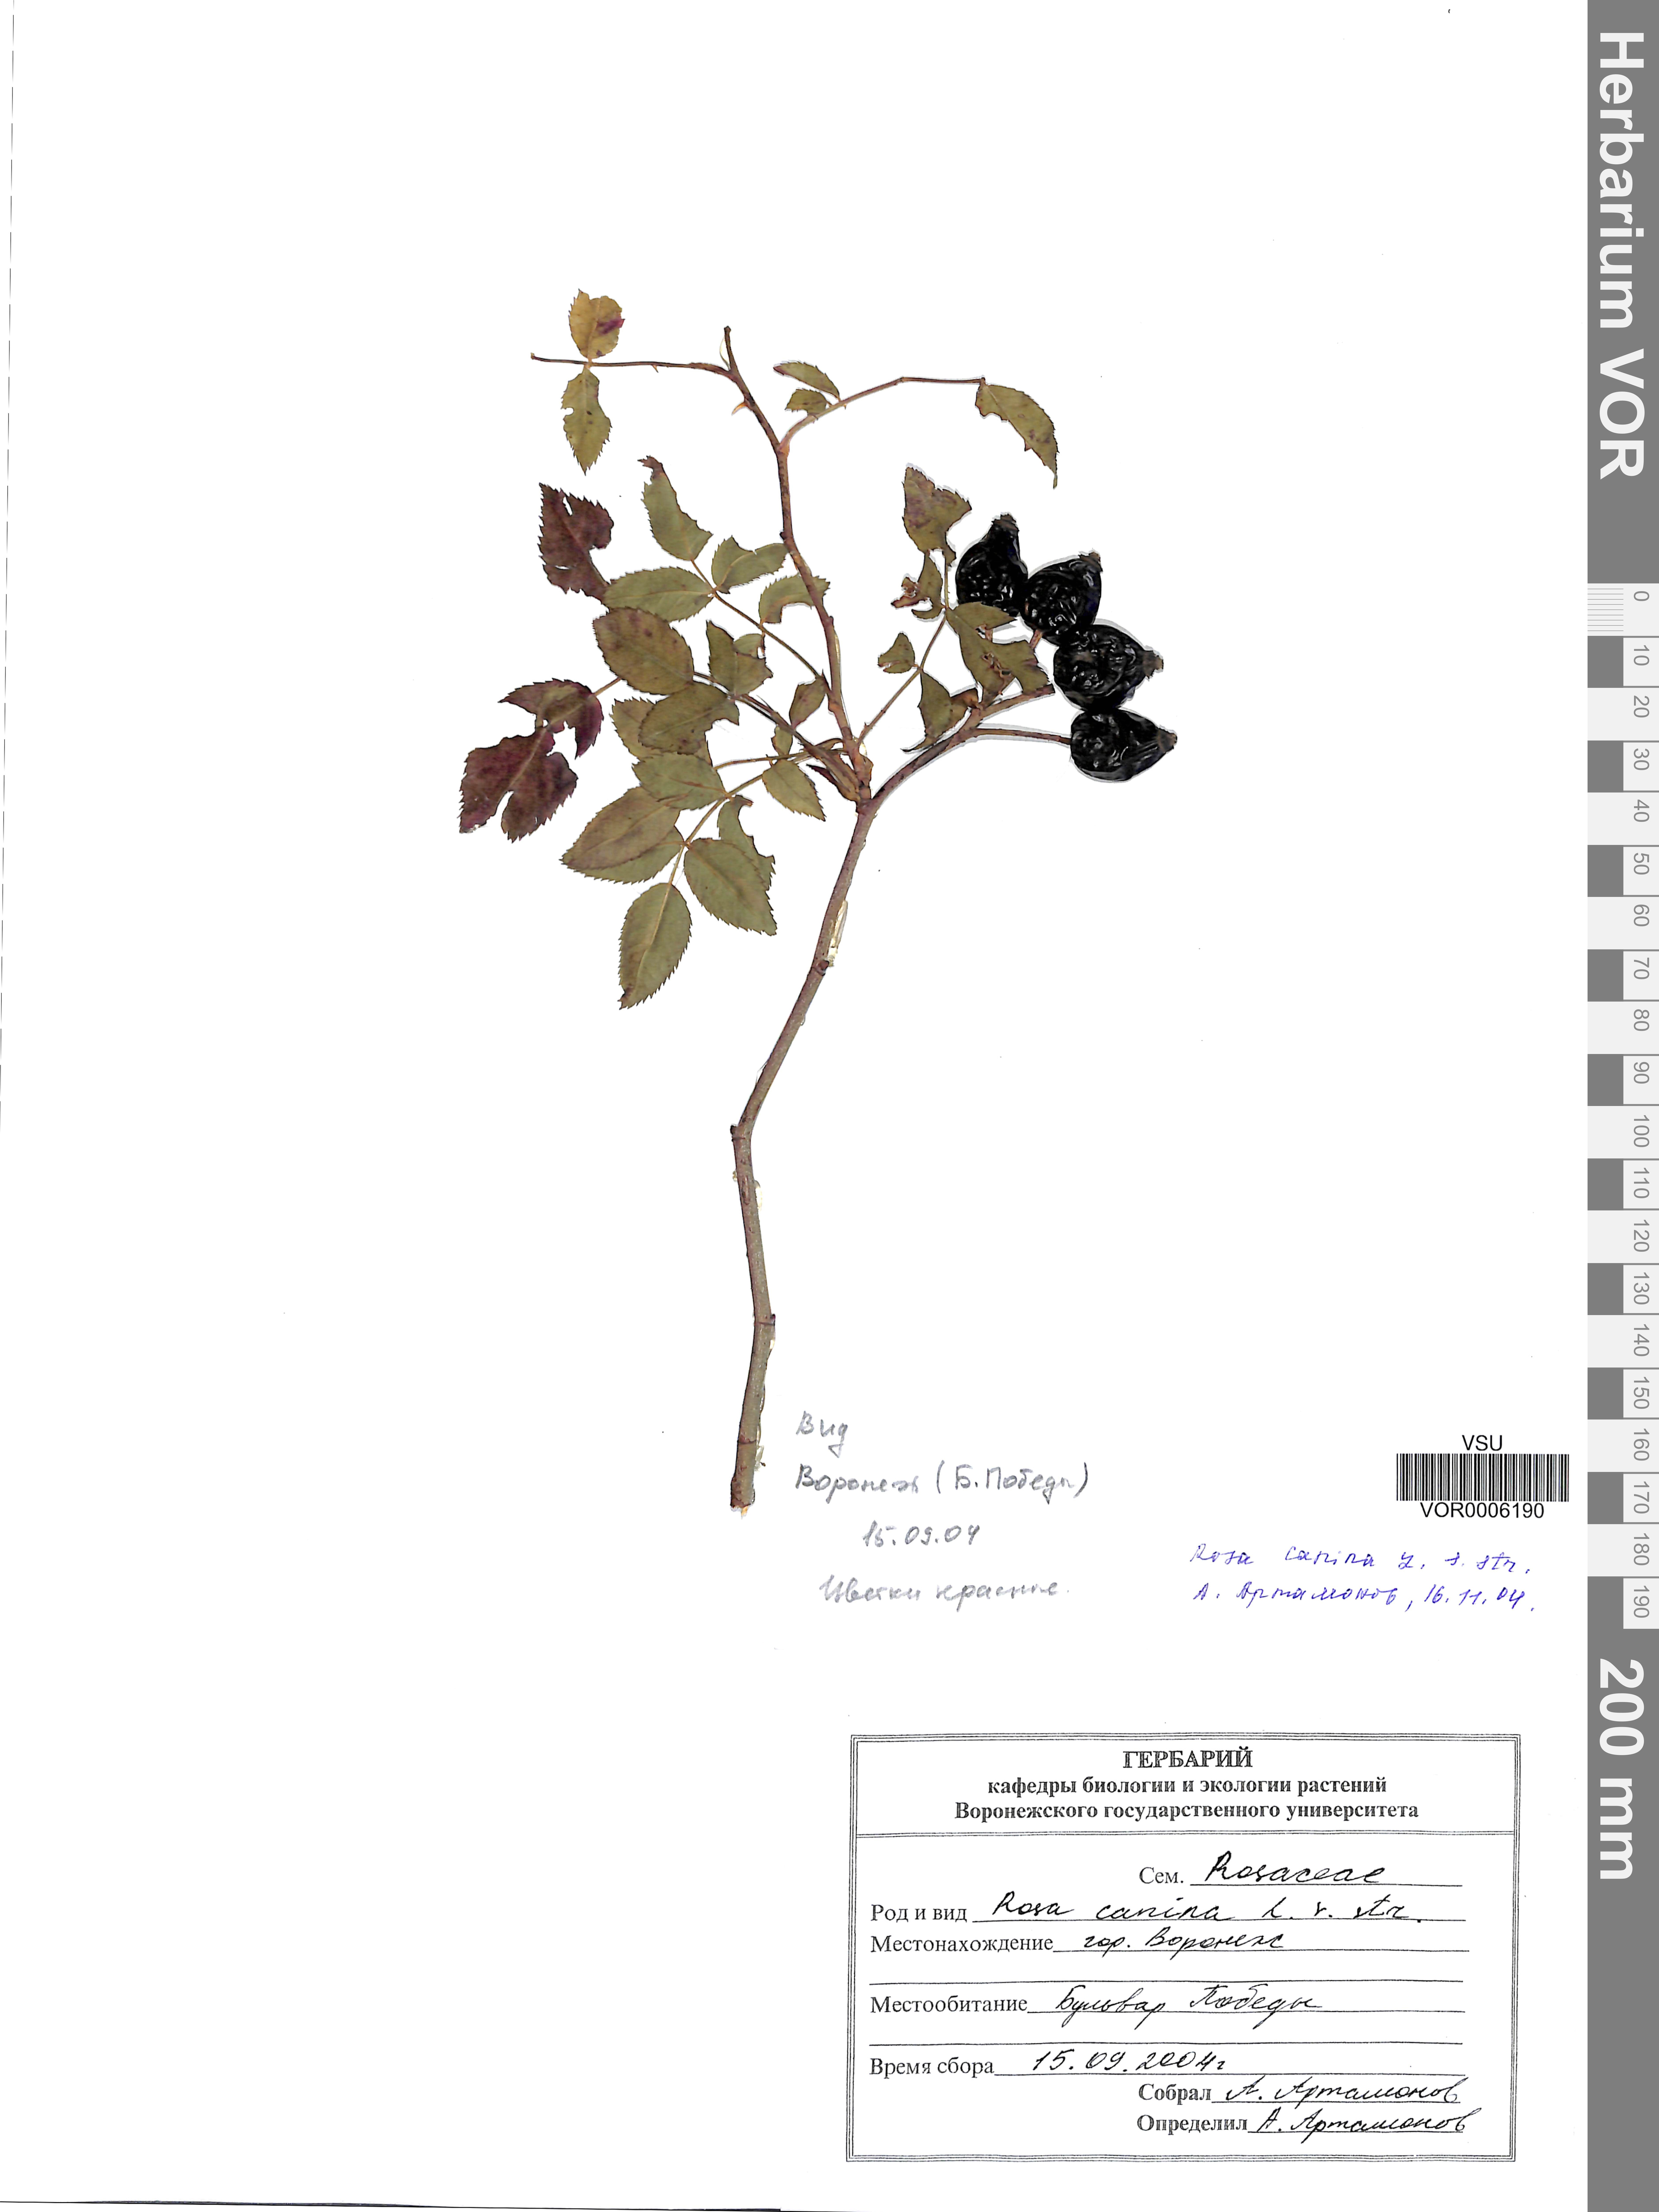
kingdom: Plantae
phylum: Tracheophyta
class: Magnoliopsida
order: Rosales
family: Rosaceae
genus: Rosa
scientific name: Rosa canina
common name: Dog rose
